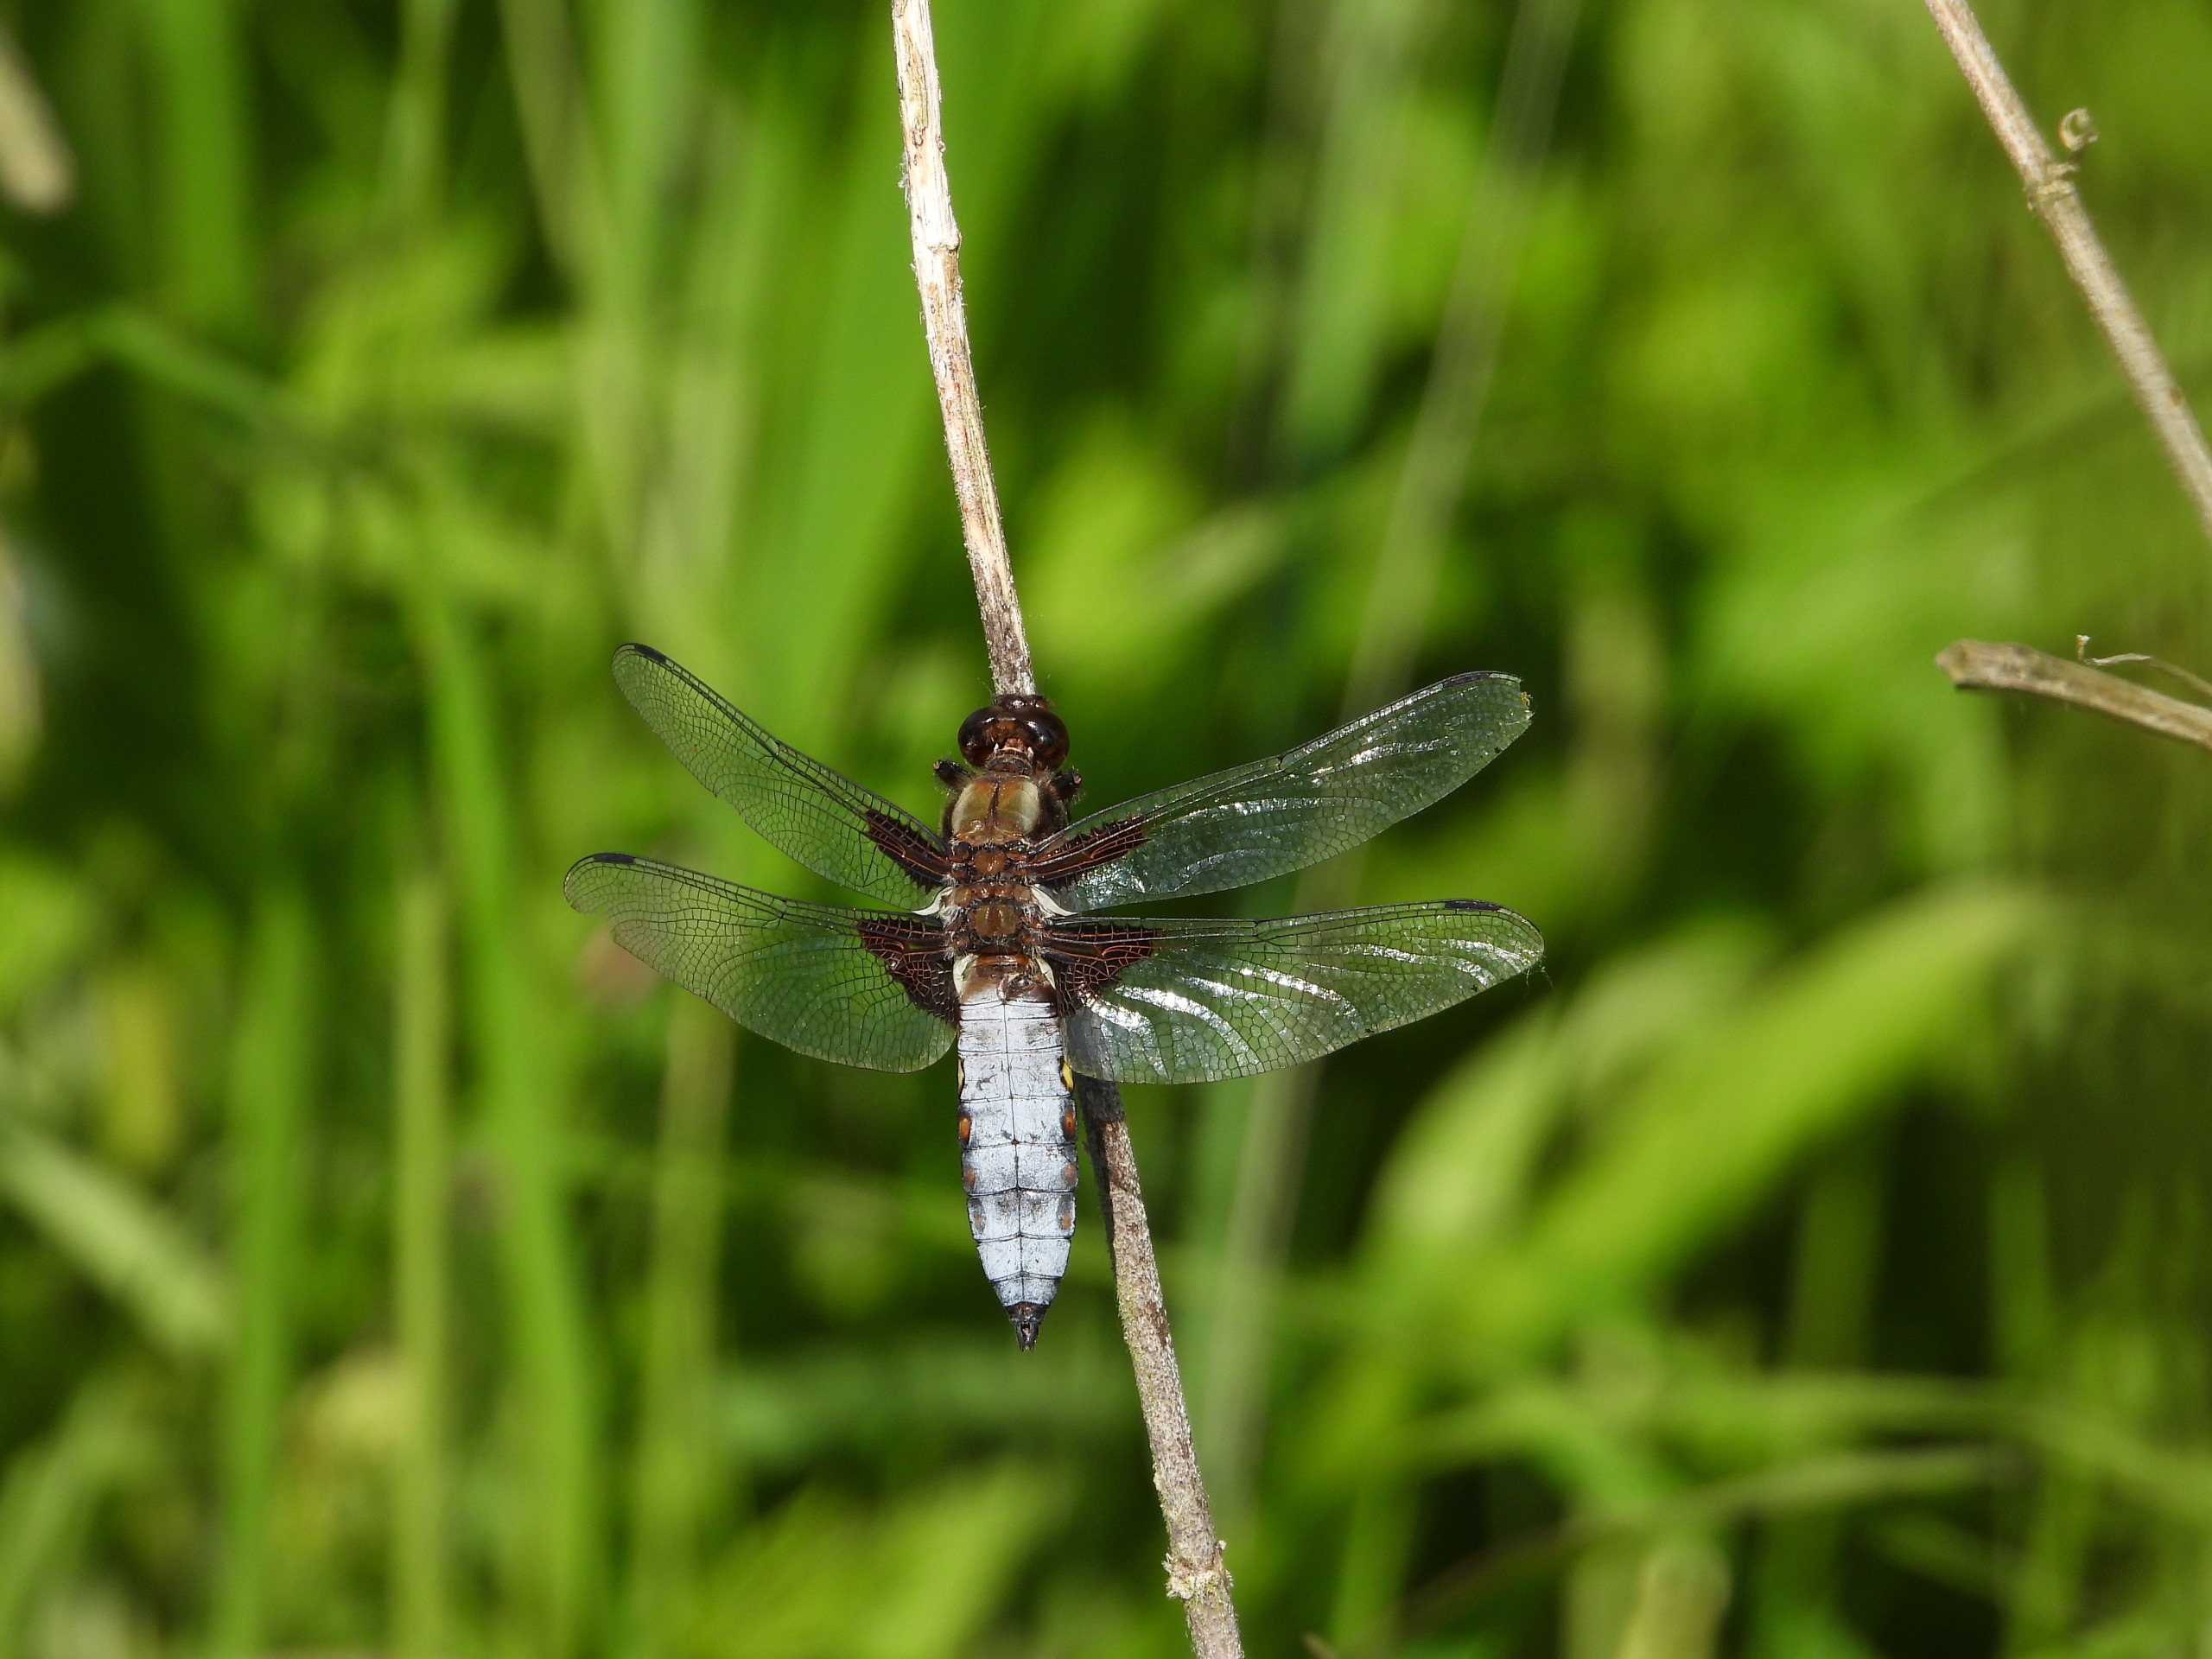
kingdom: Animalia
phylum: Arthropoda
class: Insecta
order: Odonata
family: Libellulidae
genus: Libellula
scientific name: Libellula depressa
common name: Blå libel
